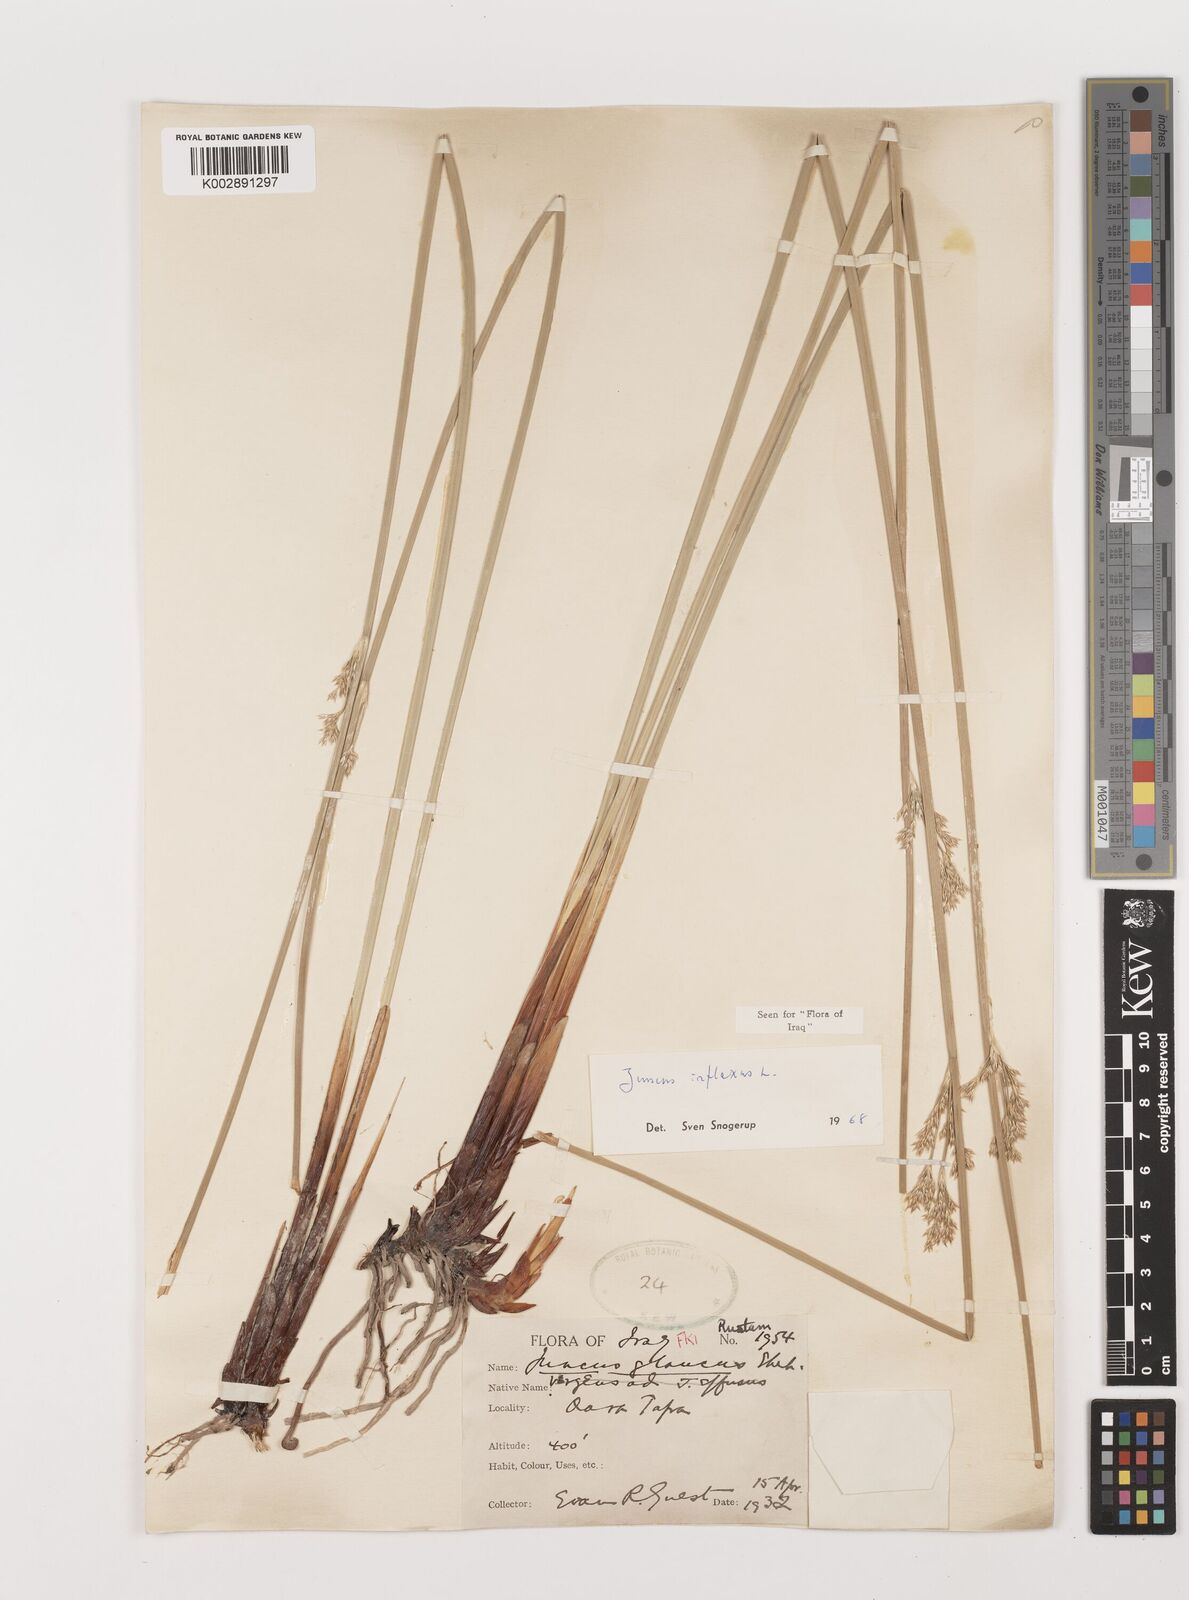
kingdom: Plantae
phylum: Tracheophyta
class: Liliopsida
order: Poales
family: Juncaceae
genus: Juncus
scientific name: Juncus inflexus
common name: Hard rush
